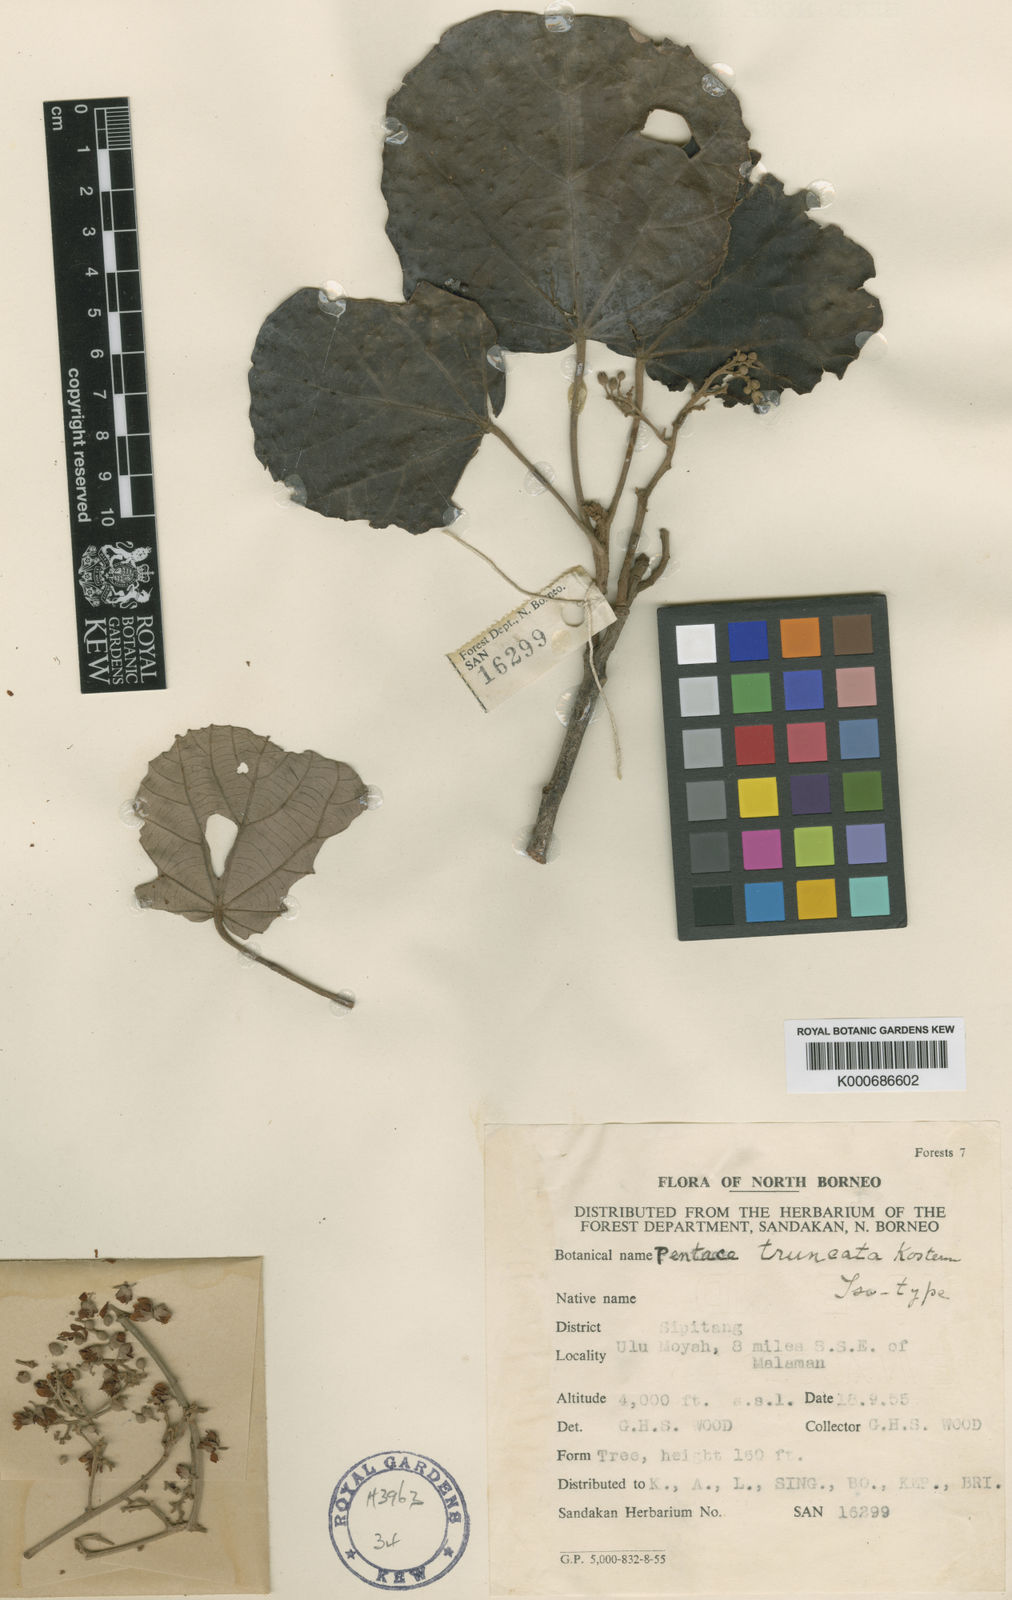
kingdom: Plantae
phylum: Tracheophyta
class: Magnoliopsida
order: Malvales
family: Malvaceae
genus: Pentace
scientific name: Pentace truncata
